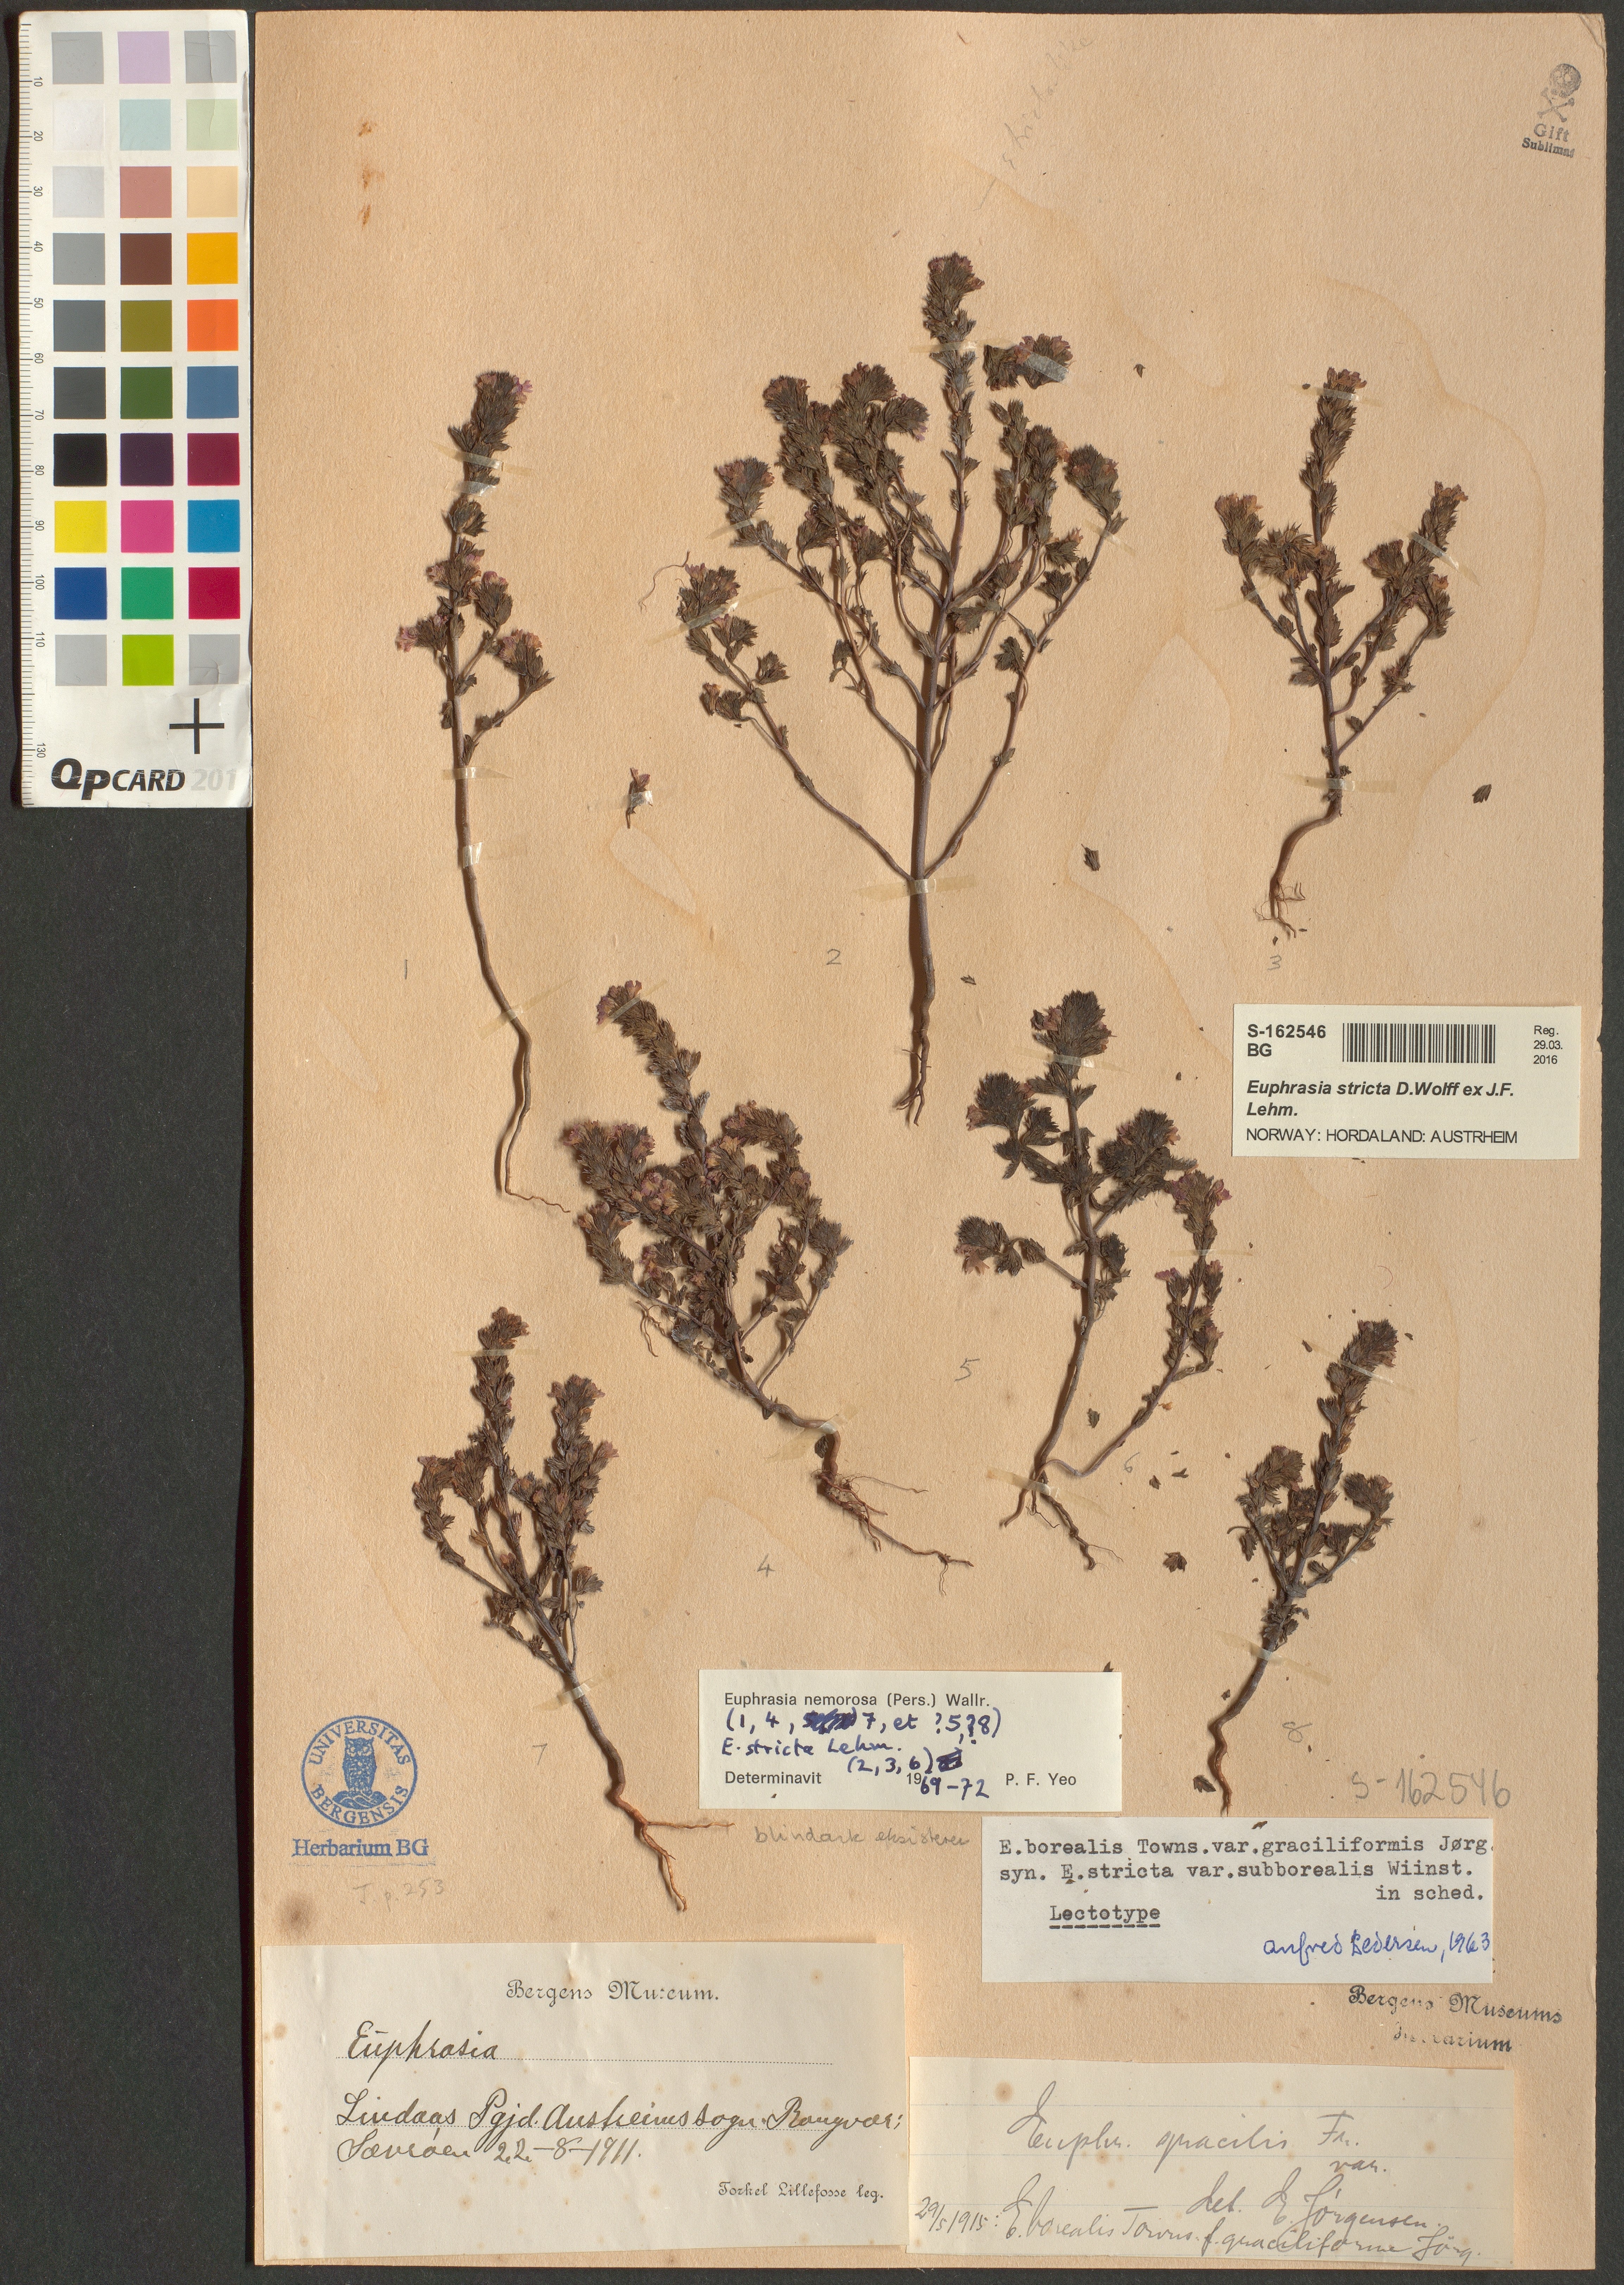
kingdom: Plantae
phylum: Tracheophyta
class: Magnoliopsida
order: Lamiales
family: Orobanchaceae
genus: Euphrasia
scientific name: Euphrasia stricta
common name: Drug eyebright
